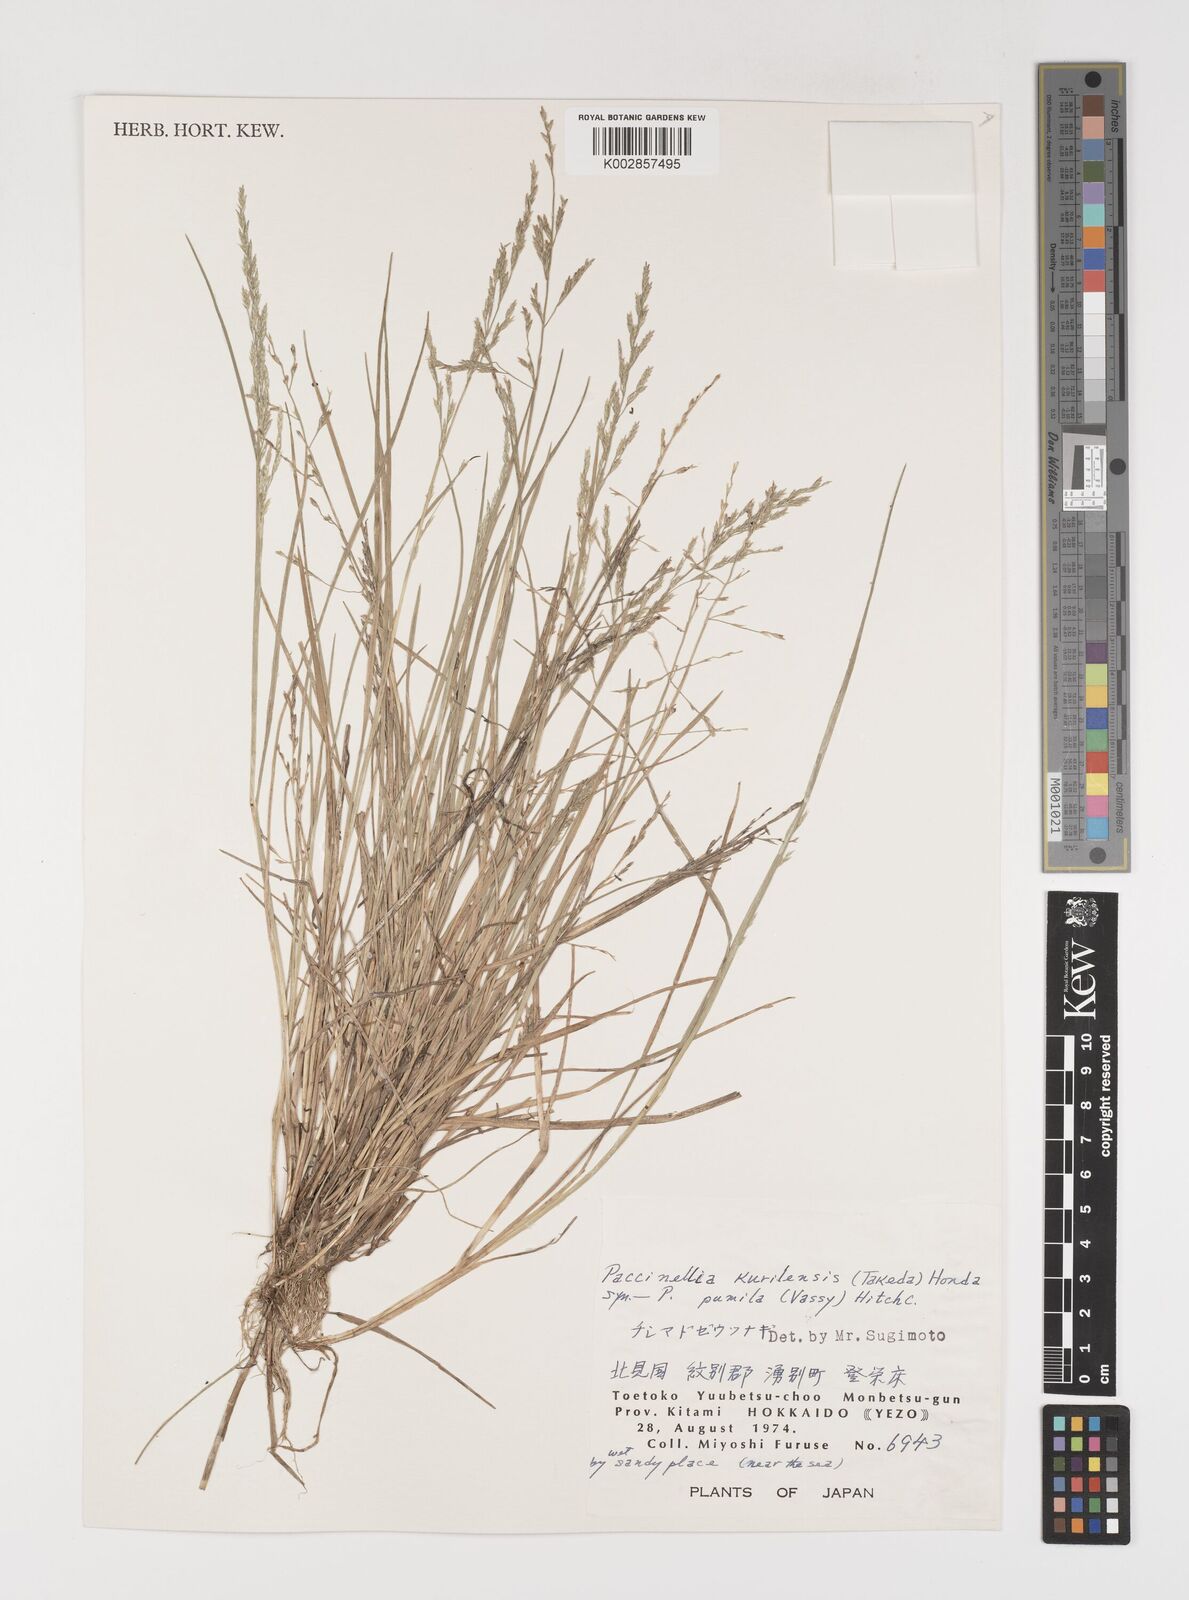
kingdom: Plantae
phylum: Tracheophyta
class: Liliopsida
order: Poales
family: Poaceae
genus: Puccinellia
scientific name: Puccinellia pumila
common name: Dwarf alkaligrass
